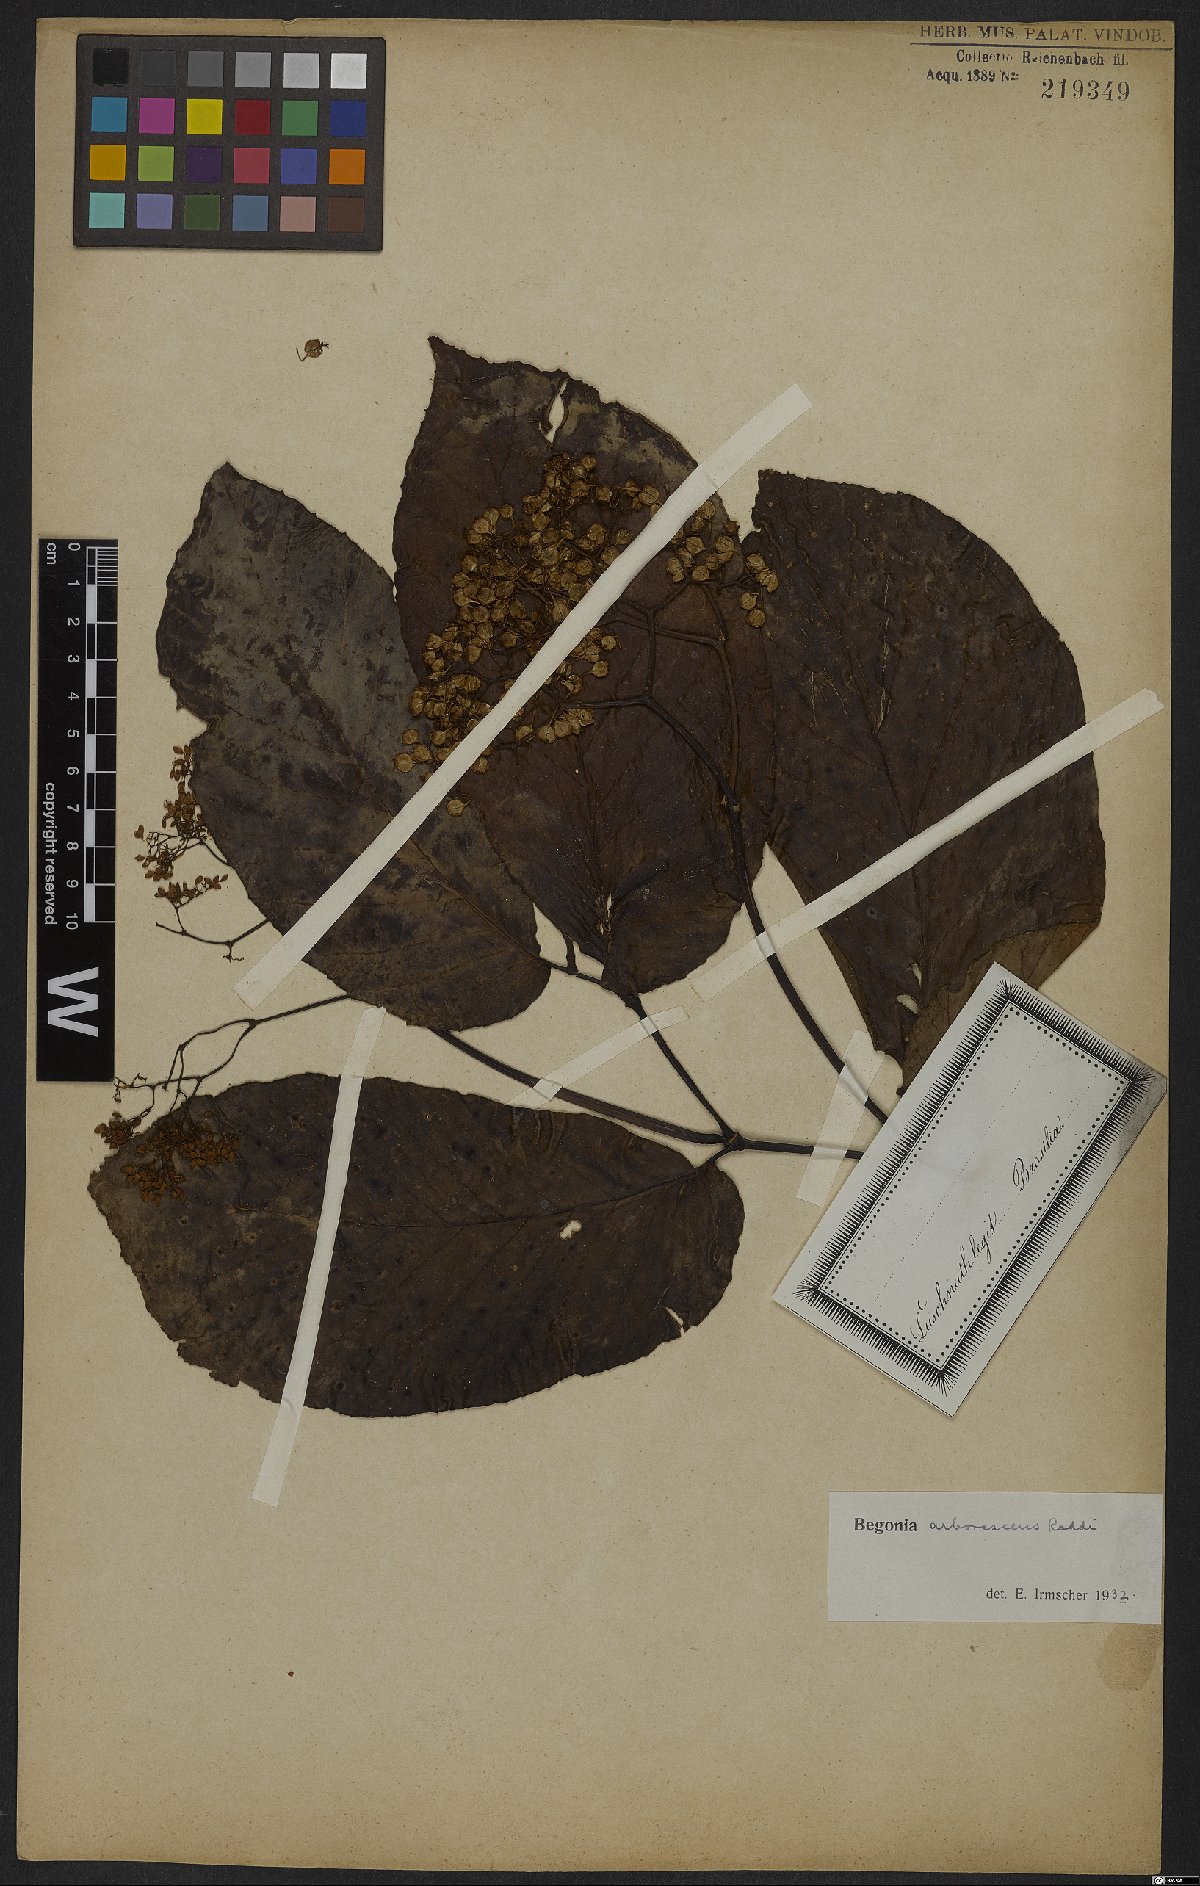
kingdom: Plantae
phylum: Tracheophyta
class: Magnoliopsida
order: Cucurbitales
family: Begoniaceae
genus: Begonia
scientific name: Begonia arborescens
